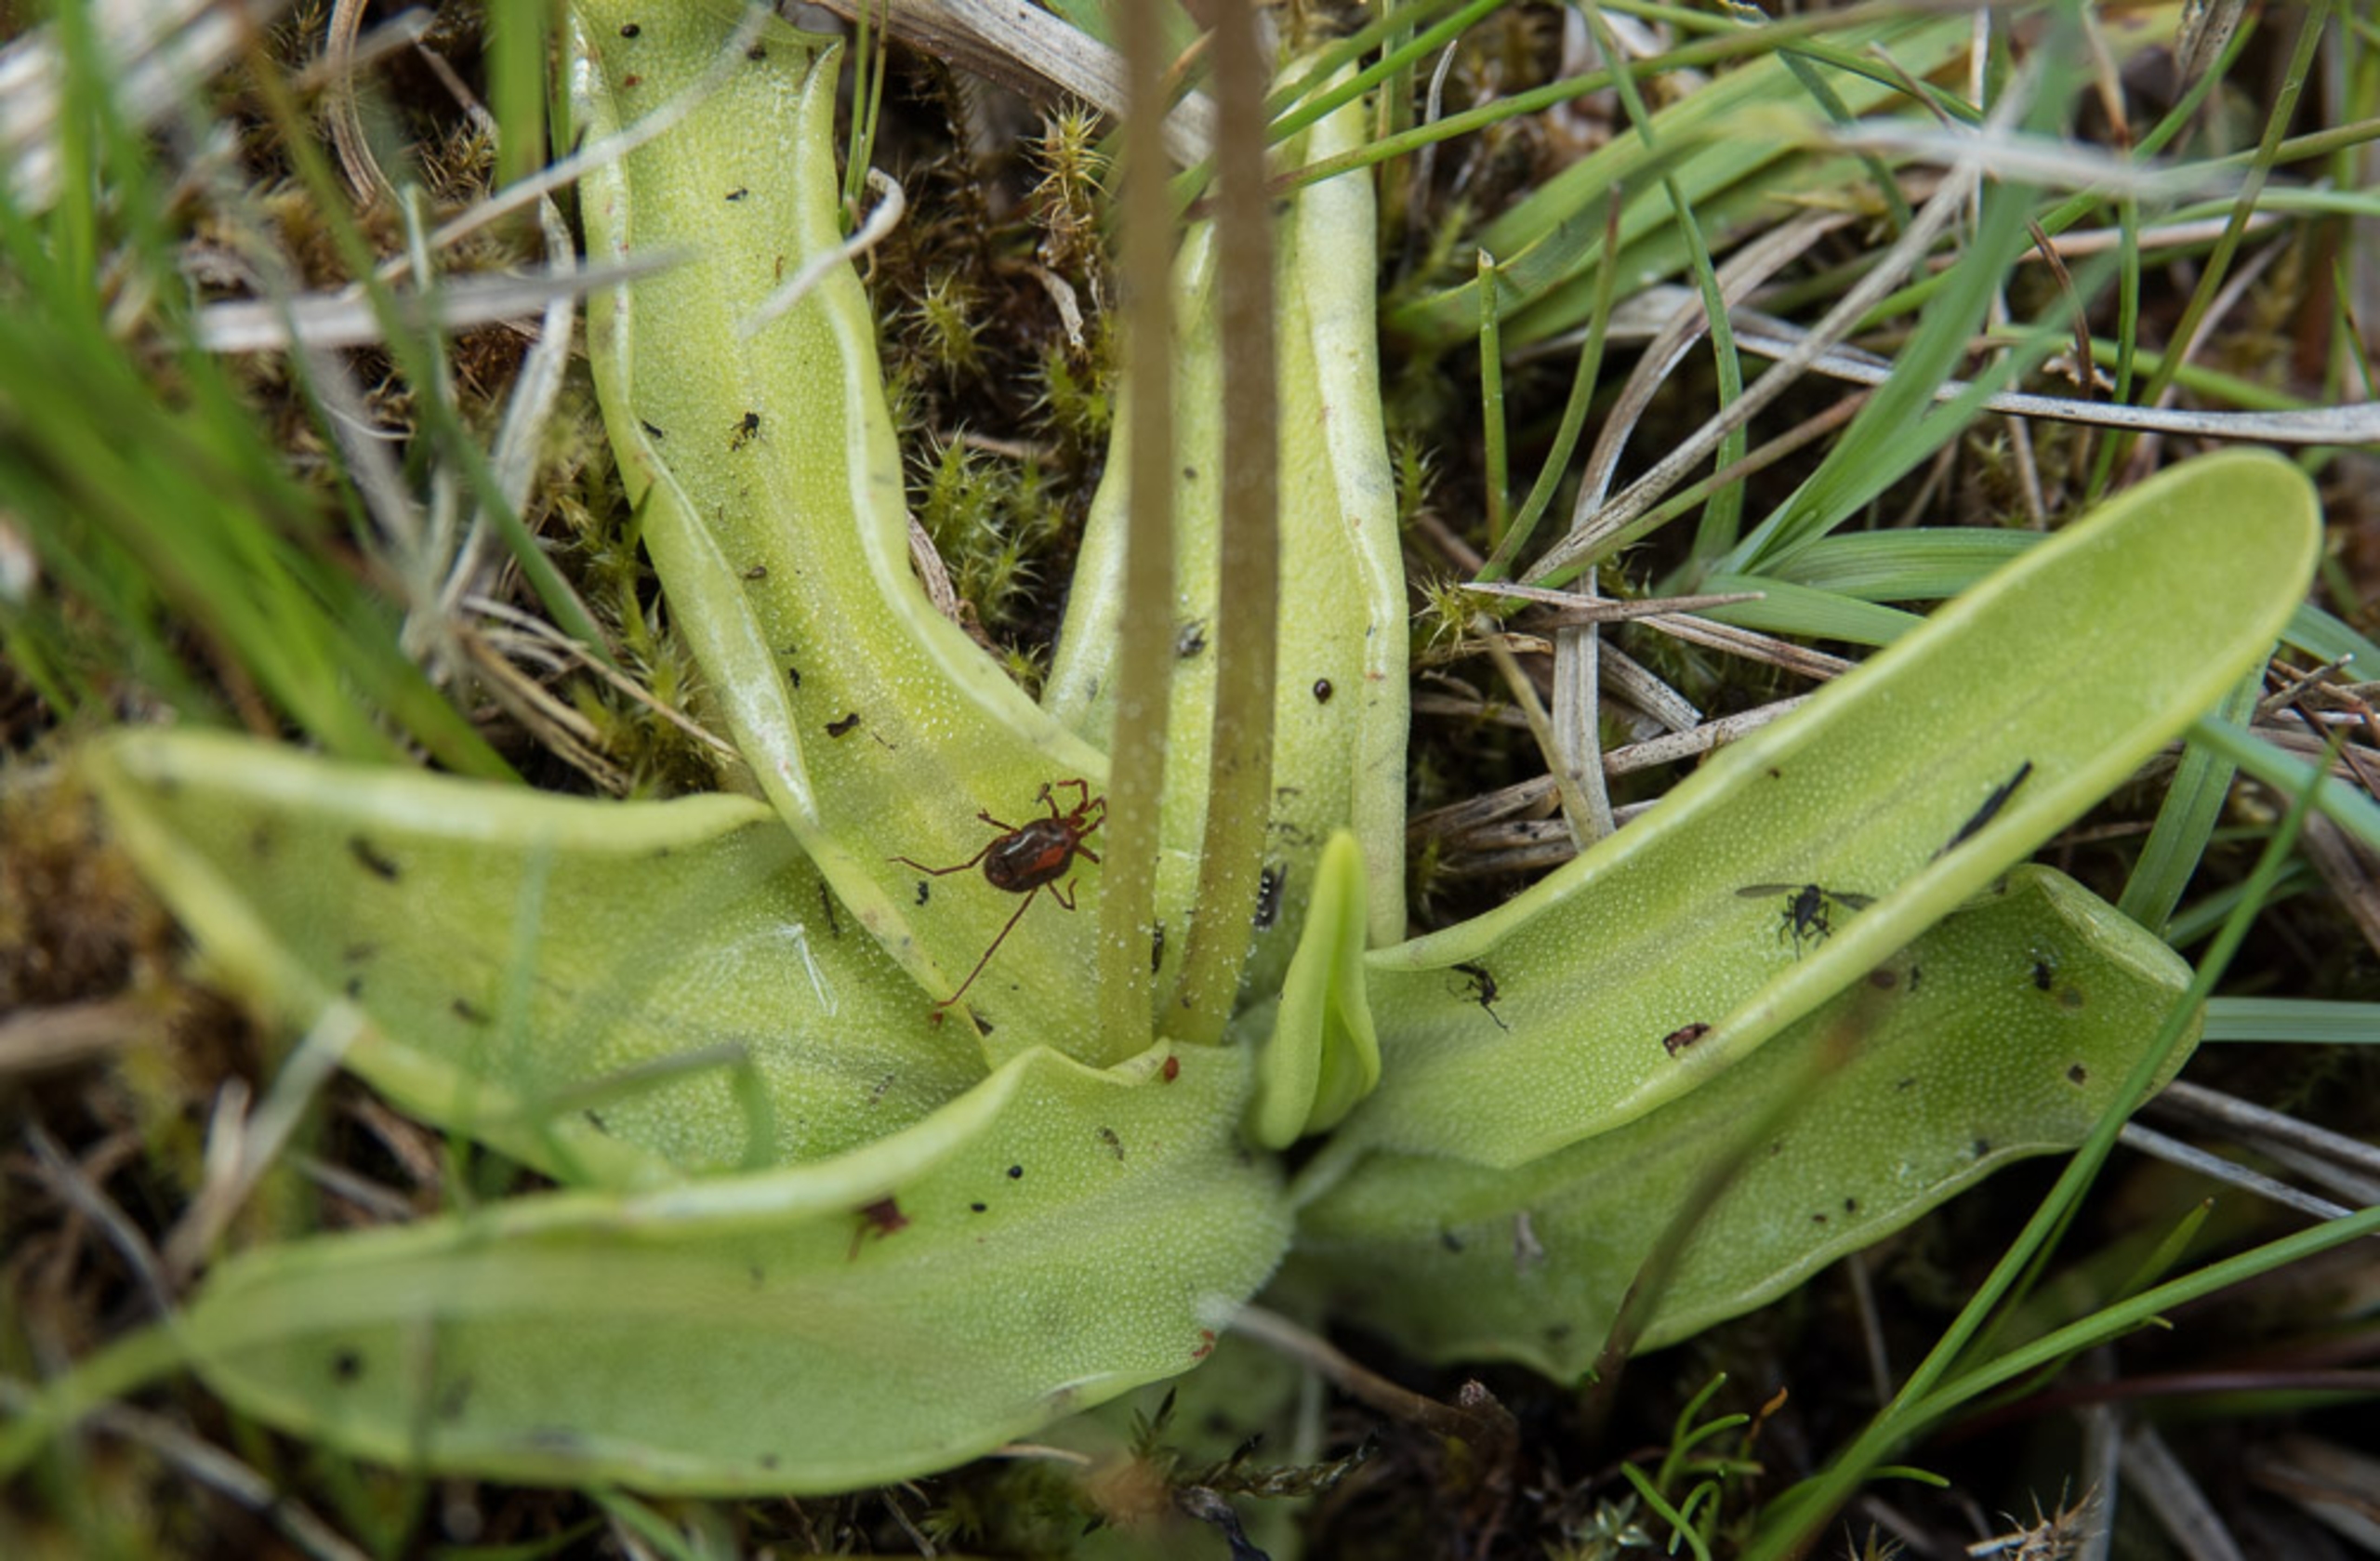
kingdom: Plantae
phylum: Tracheophyta
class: Magnoliopsida
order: Lamiales
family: Lentibulariaceae
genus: Pinguicula
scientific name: Pinguicula vulgaris
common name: Vibefedt
